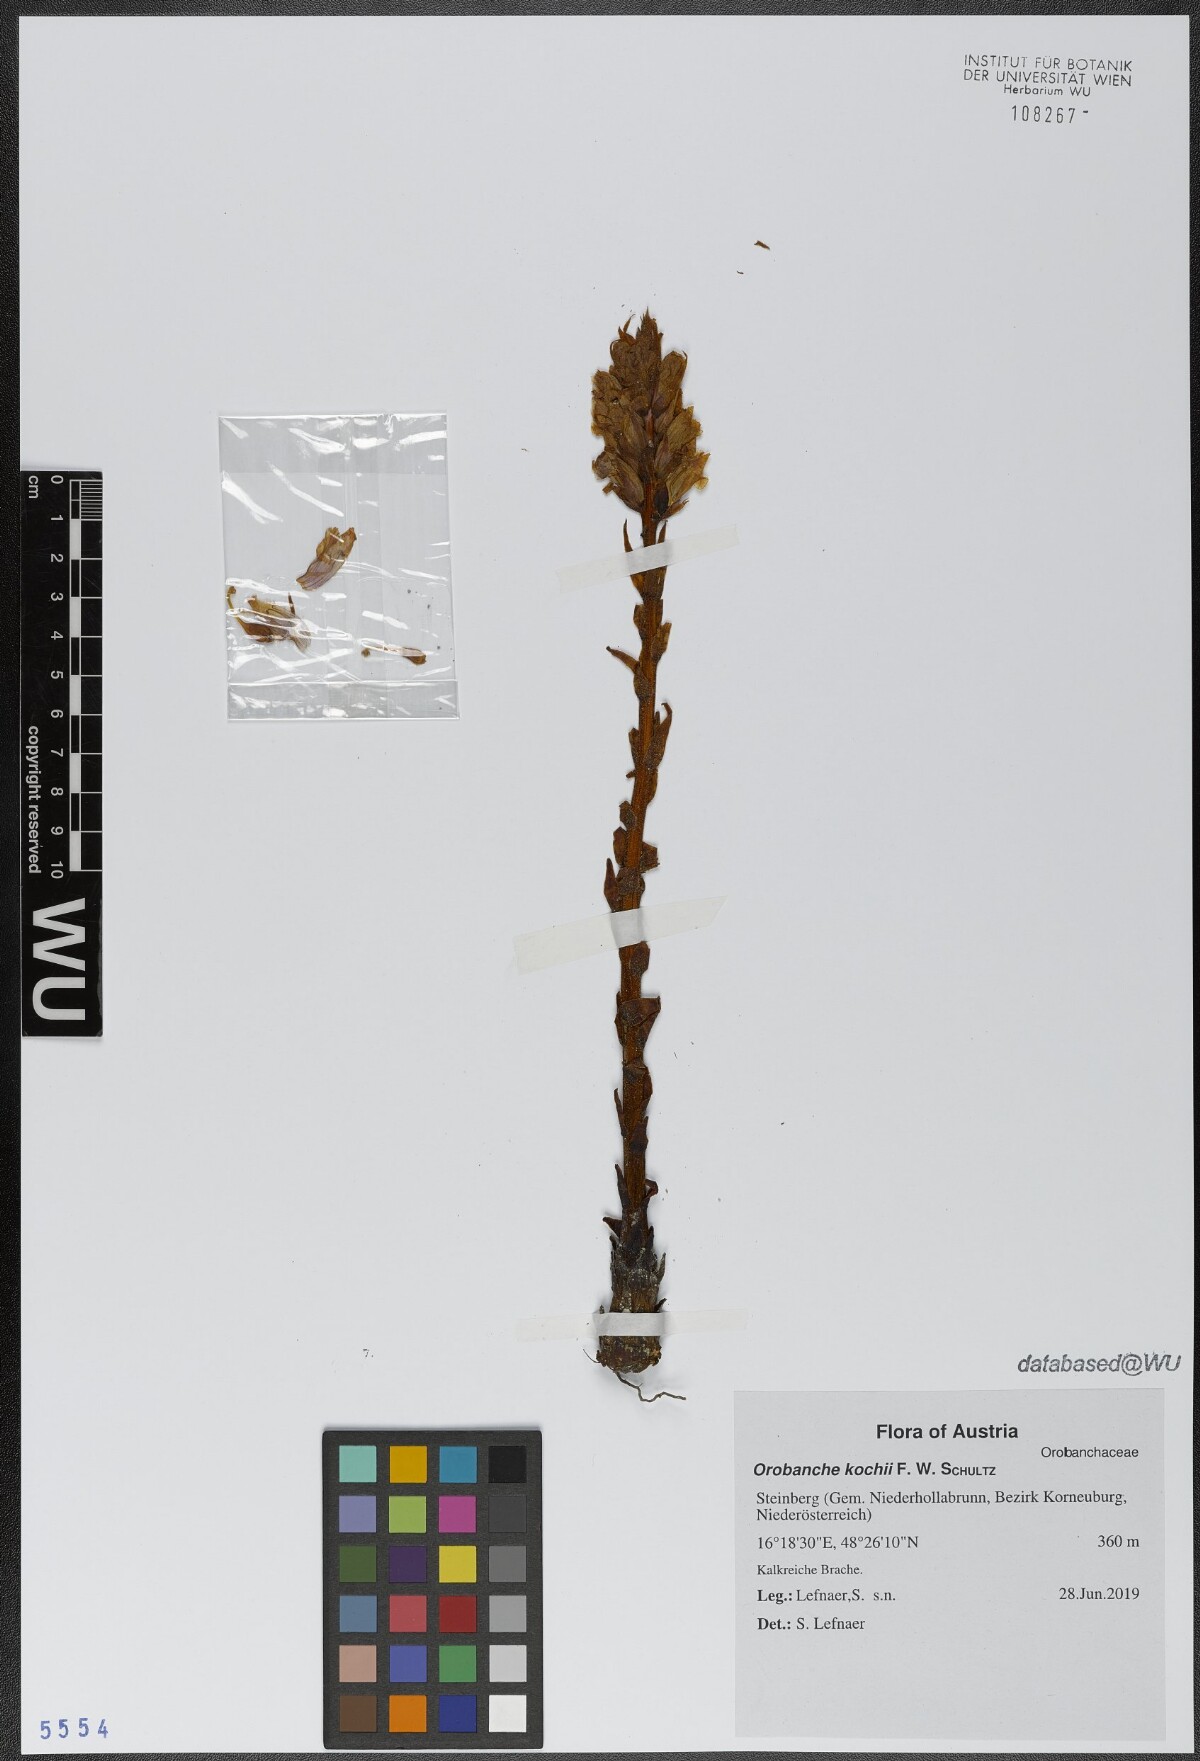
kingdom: Plantae
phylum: Tracheophyta
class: Magnoliopsida
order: Lamiales
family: Orobanchaceae
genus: Orobanche
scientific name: Orobanche centaurina
